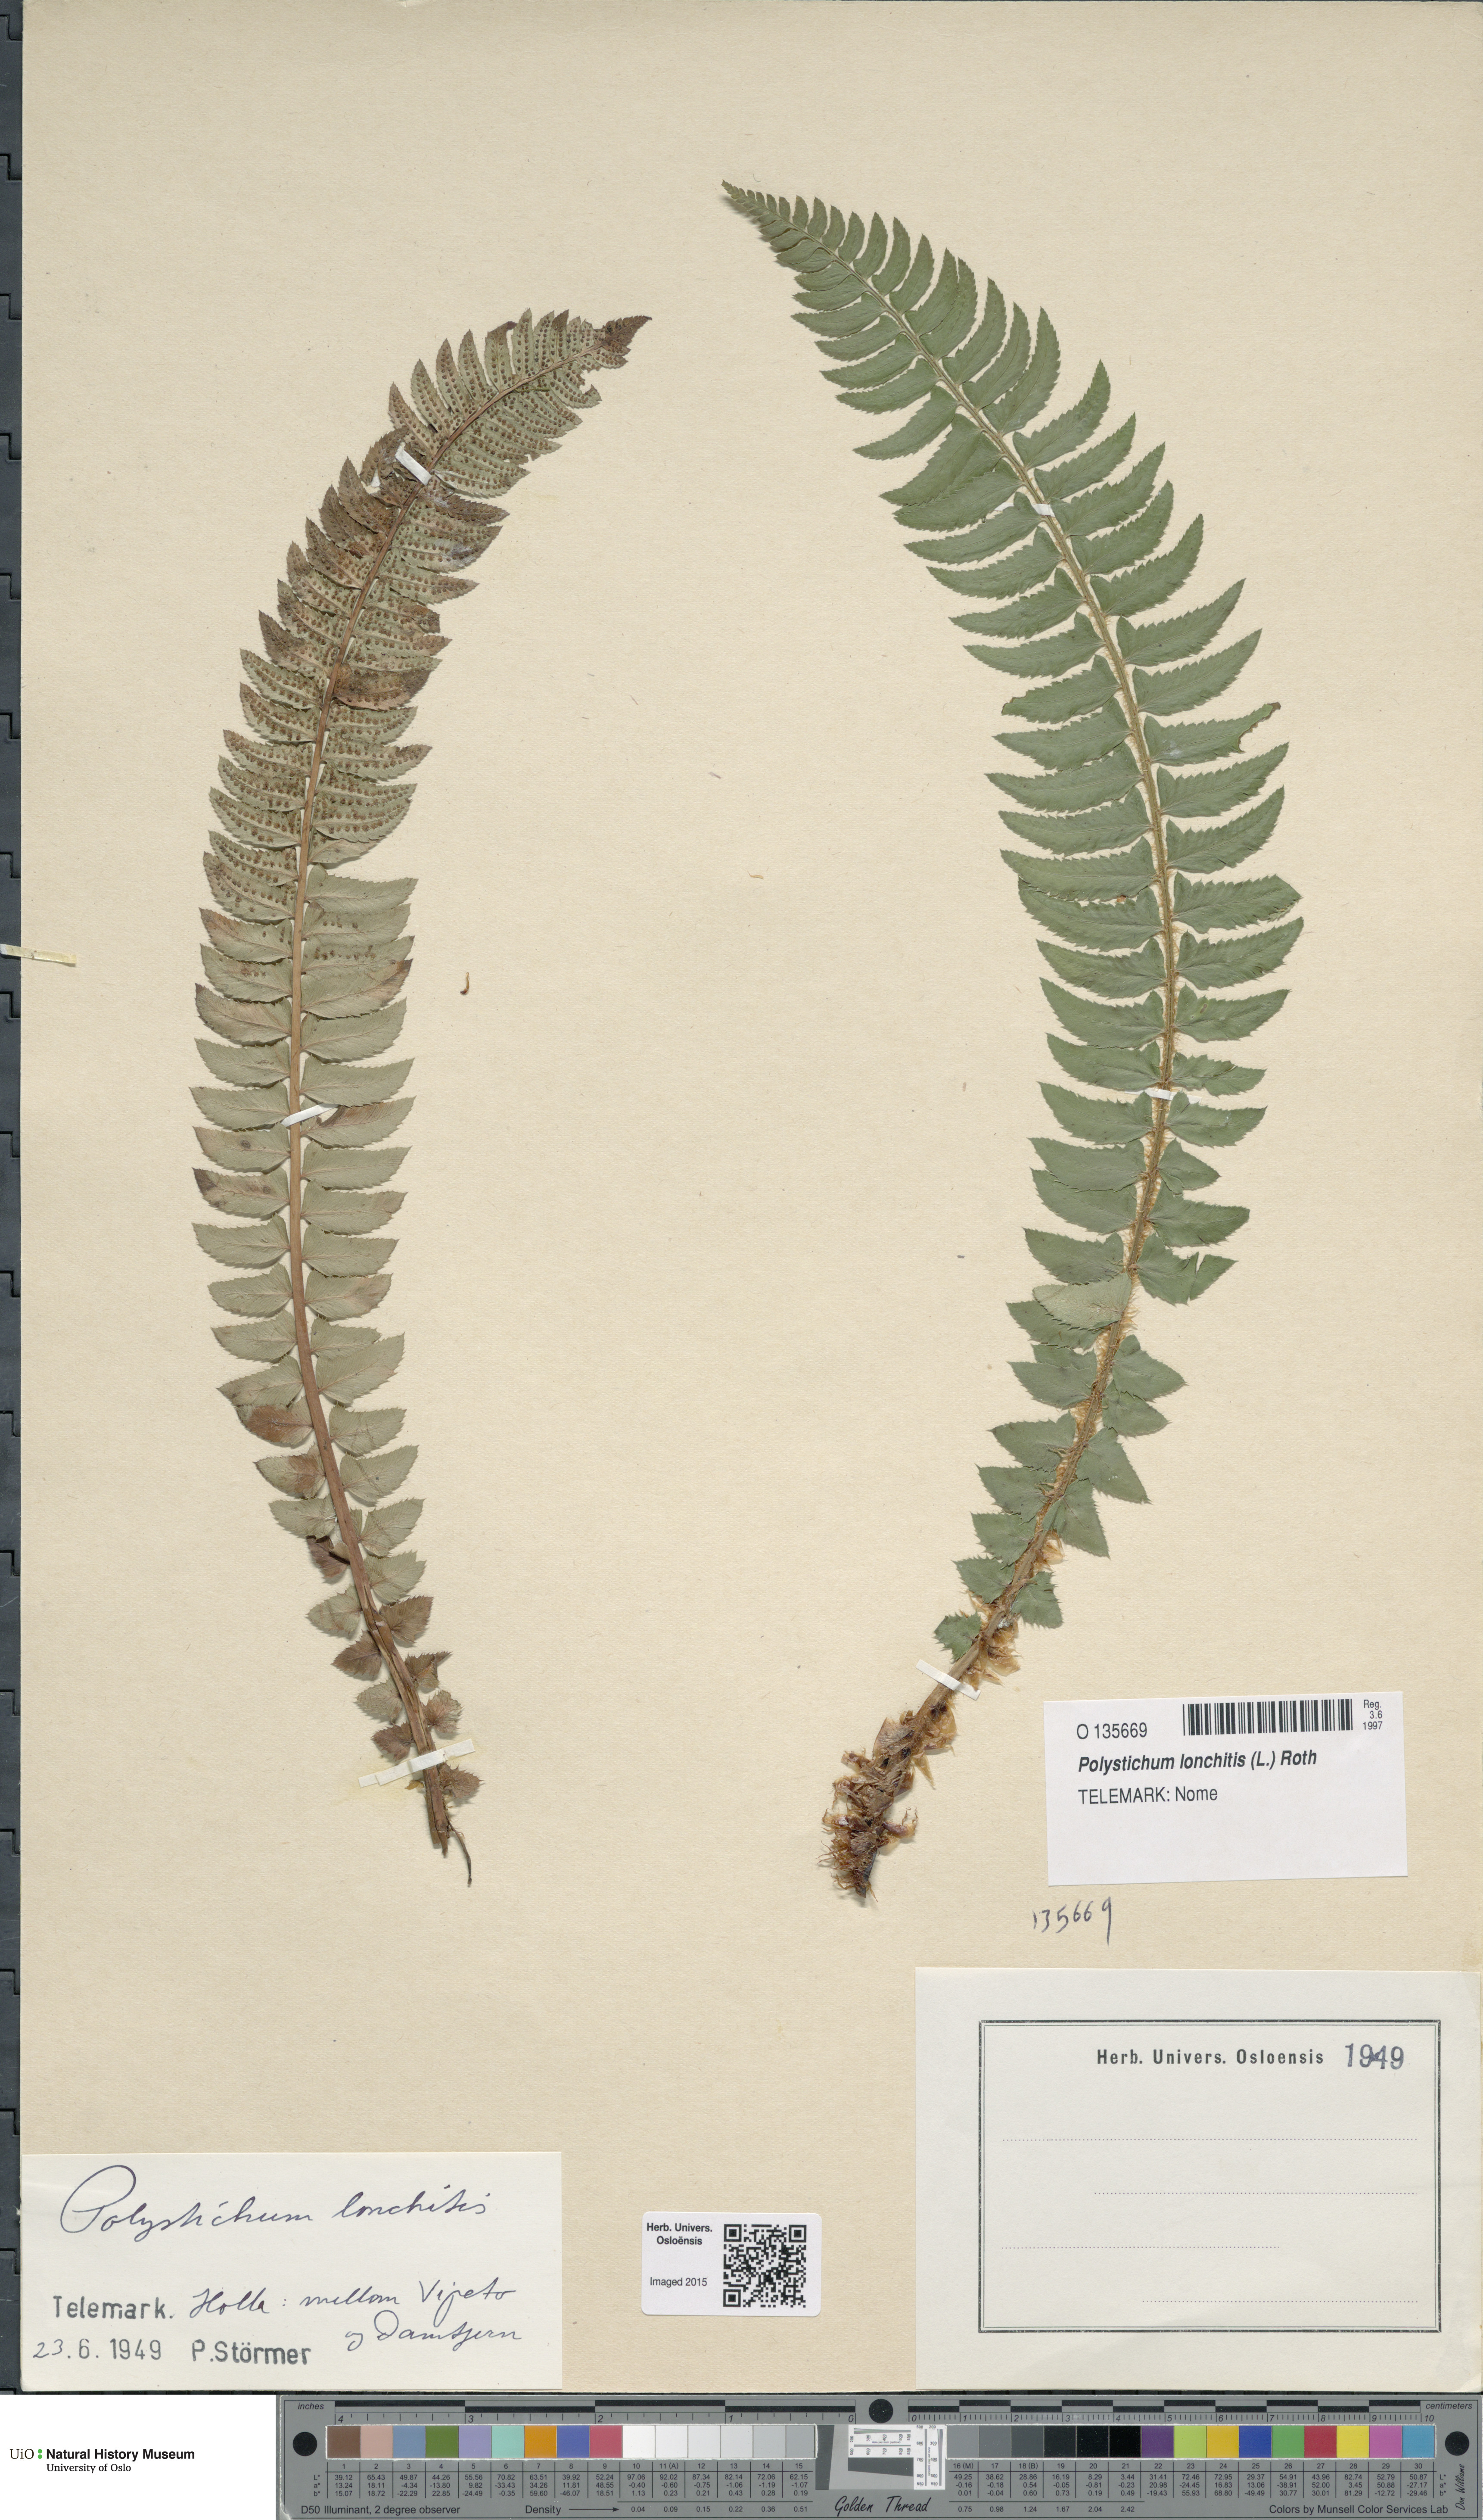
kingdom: Plantae
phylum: Tracheophyta
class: Polypodiopsida
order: Polypodiales
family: Dryopteridaceae
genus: Polystichum
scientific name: Polystichum lonchitis
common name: Holly fern
